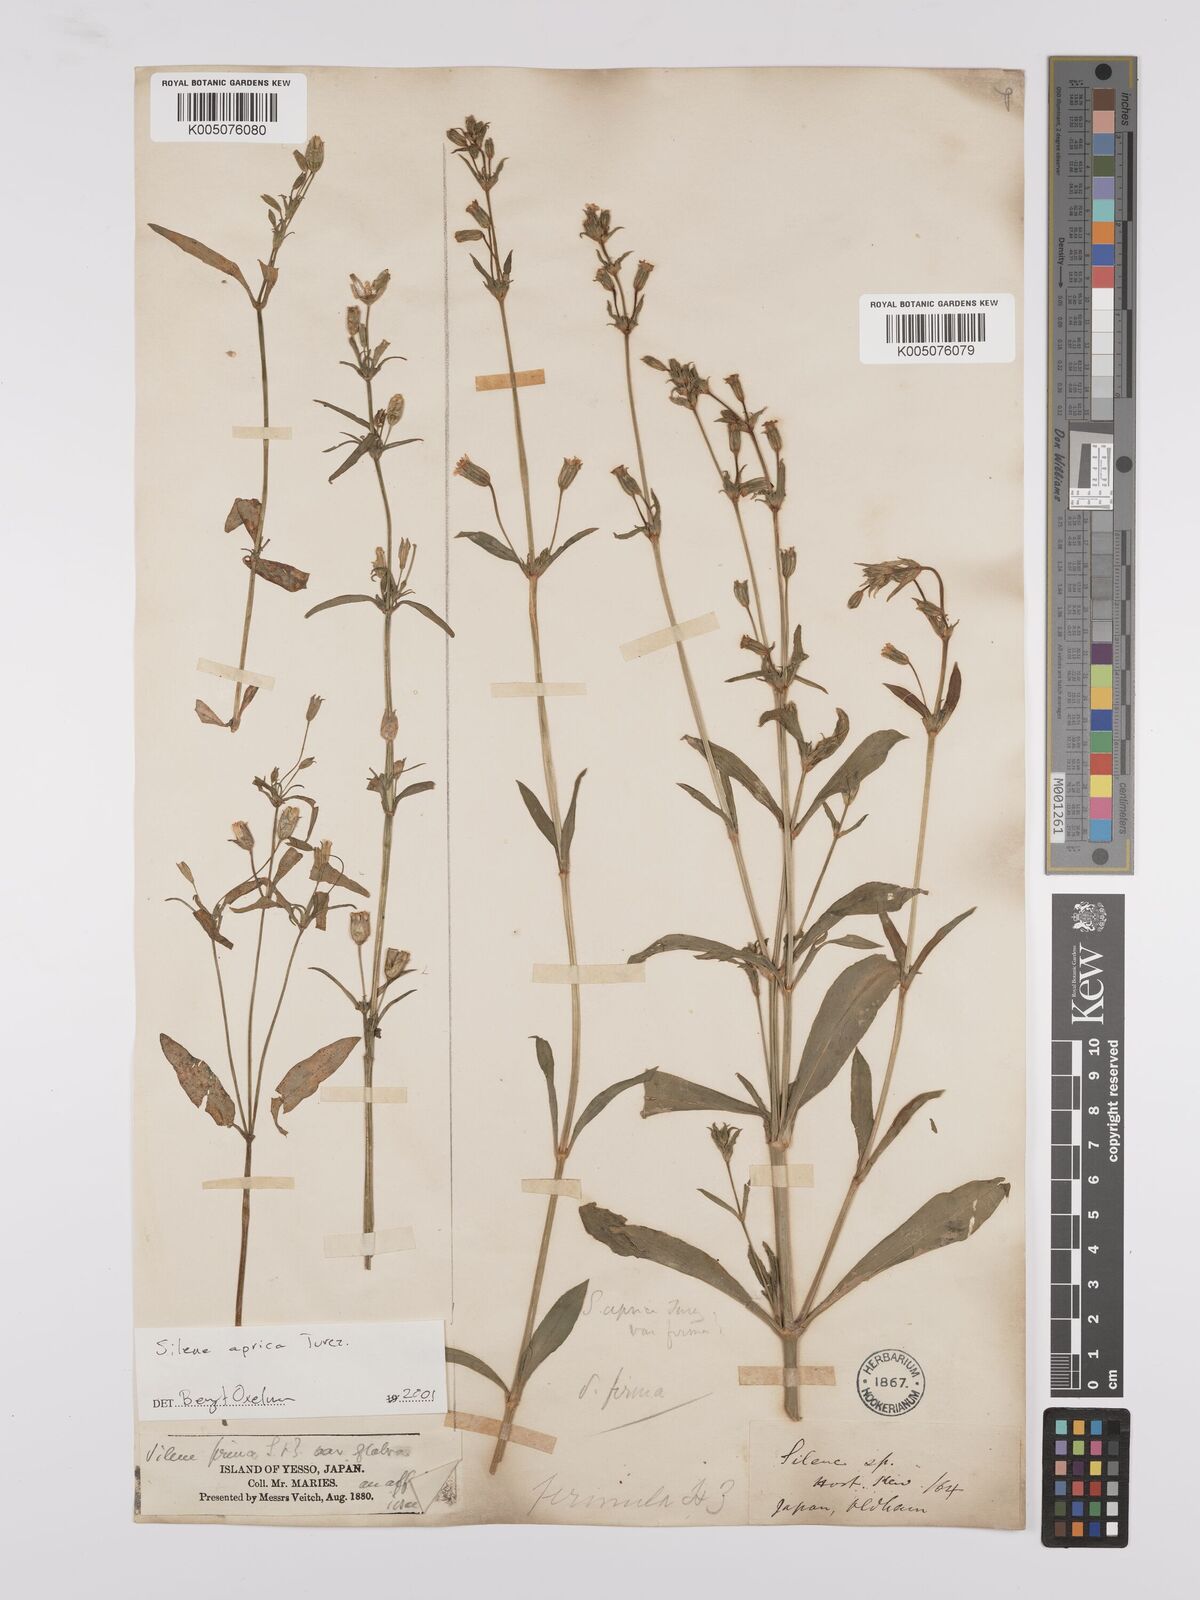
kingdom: Plantae
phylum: Tracheophyta
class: Magnoliopsida
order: Caryophyllales
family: Caryophyllaceae
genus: Silene
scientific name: Silene aprica
